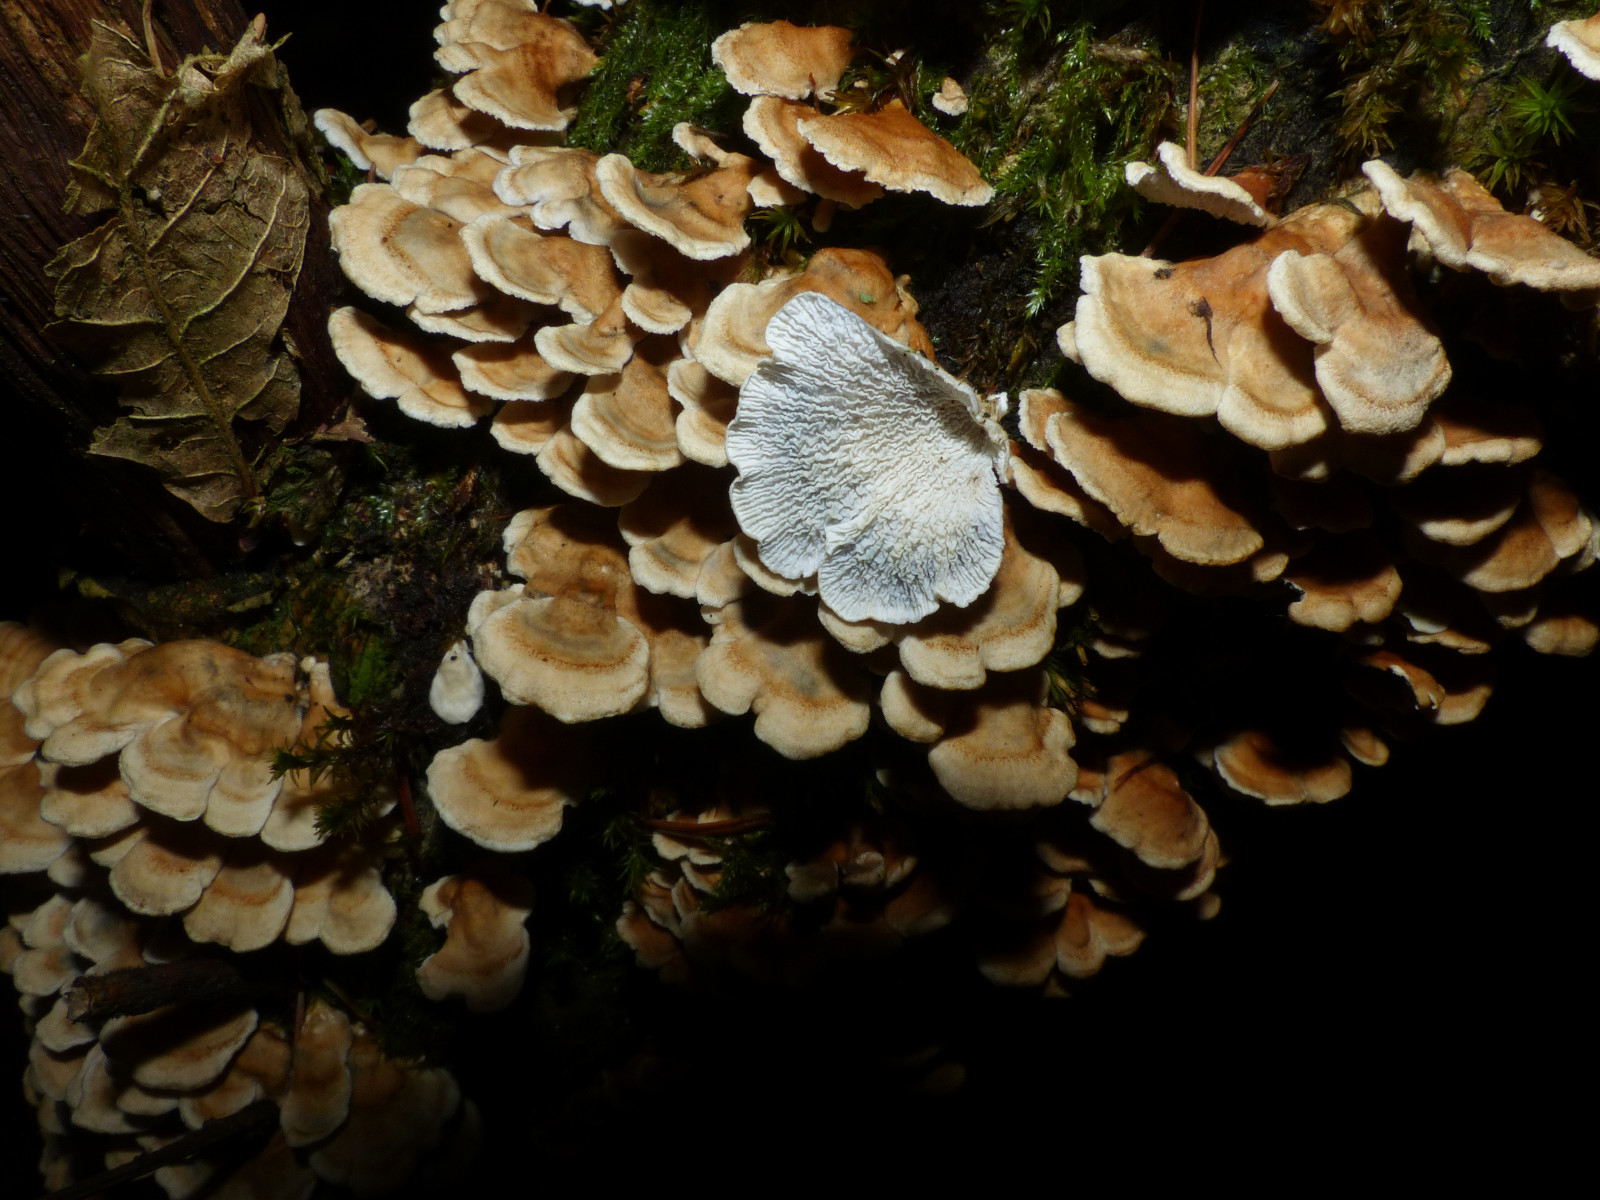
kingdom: Fungi
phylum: Basidiomycota
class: Agaricomycetes
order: Amylocorticiales
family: Amylocorticiaceae
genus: Plicaturopsis
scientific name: Plicaturopsis crispa
